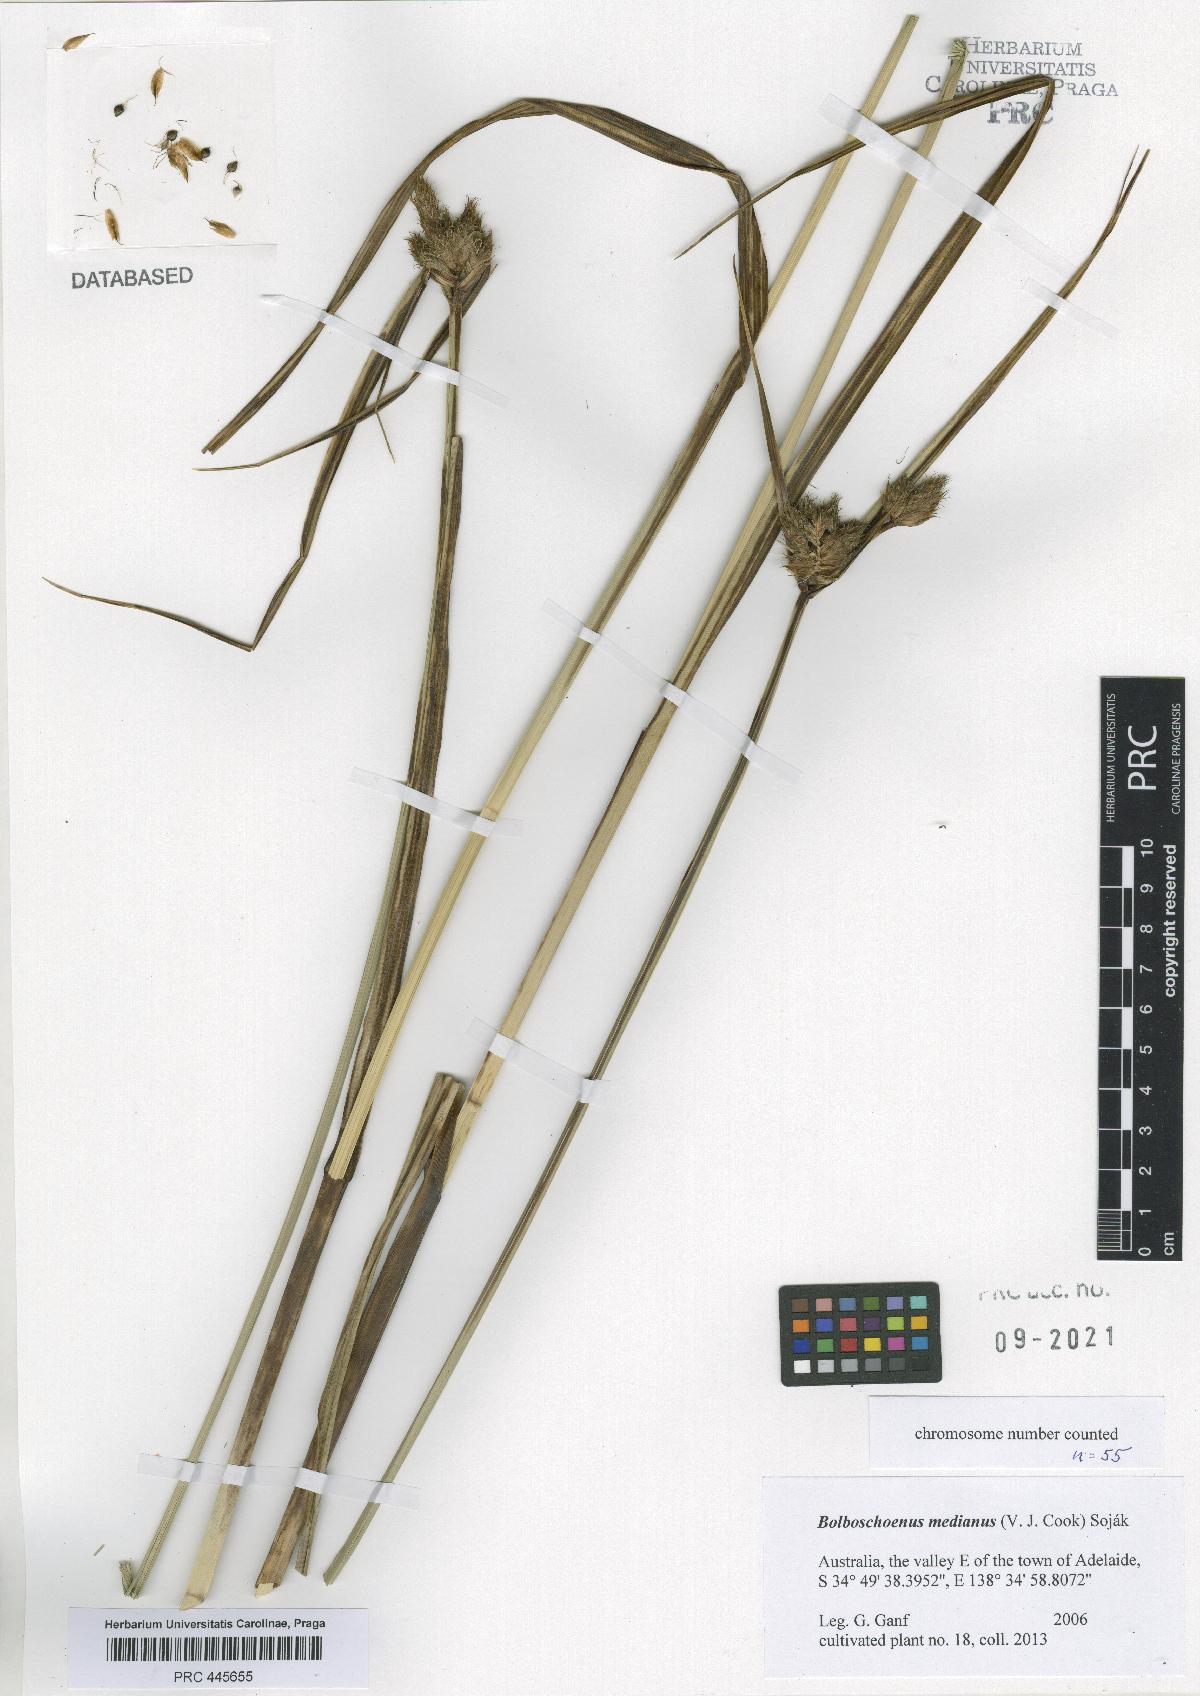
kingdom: Plantae
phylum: Tracheophyta
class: Liliopsida
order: Poales
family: Cyperaceae
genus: Bolboschoenus
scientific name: Bolboschoenus medianus
